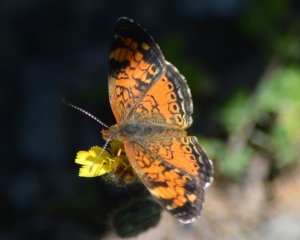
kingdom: Animalia
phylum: Arthropoda
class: Insecta
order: Lepidoptera
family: Nymphalidae
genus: Phyciodes
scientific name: Phyciodes tharos
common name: Northern Crescent
